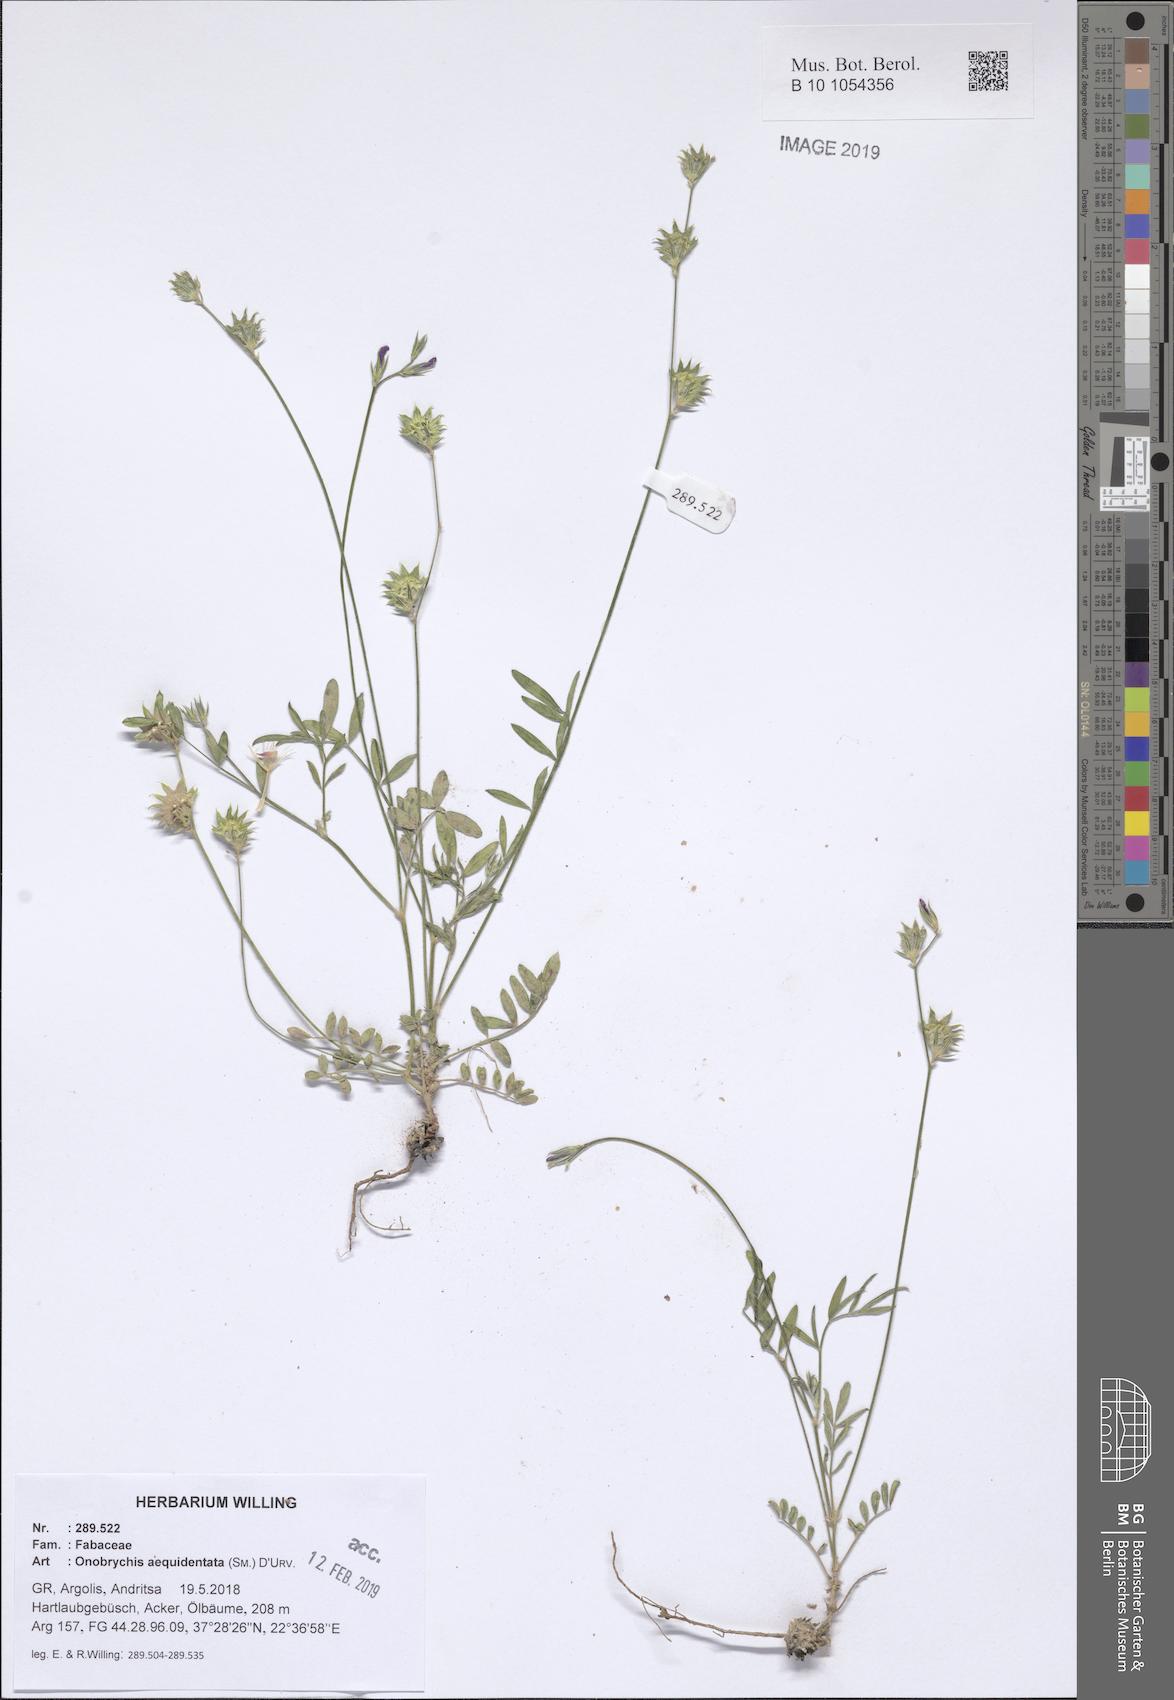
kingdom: Plantae
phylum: Tracheophyta
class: Magnoliopsida
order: Fabales
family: Fabaceae
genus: Onobrychis
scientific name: Onobrychis aequidentata
